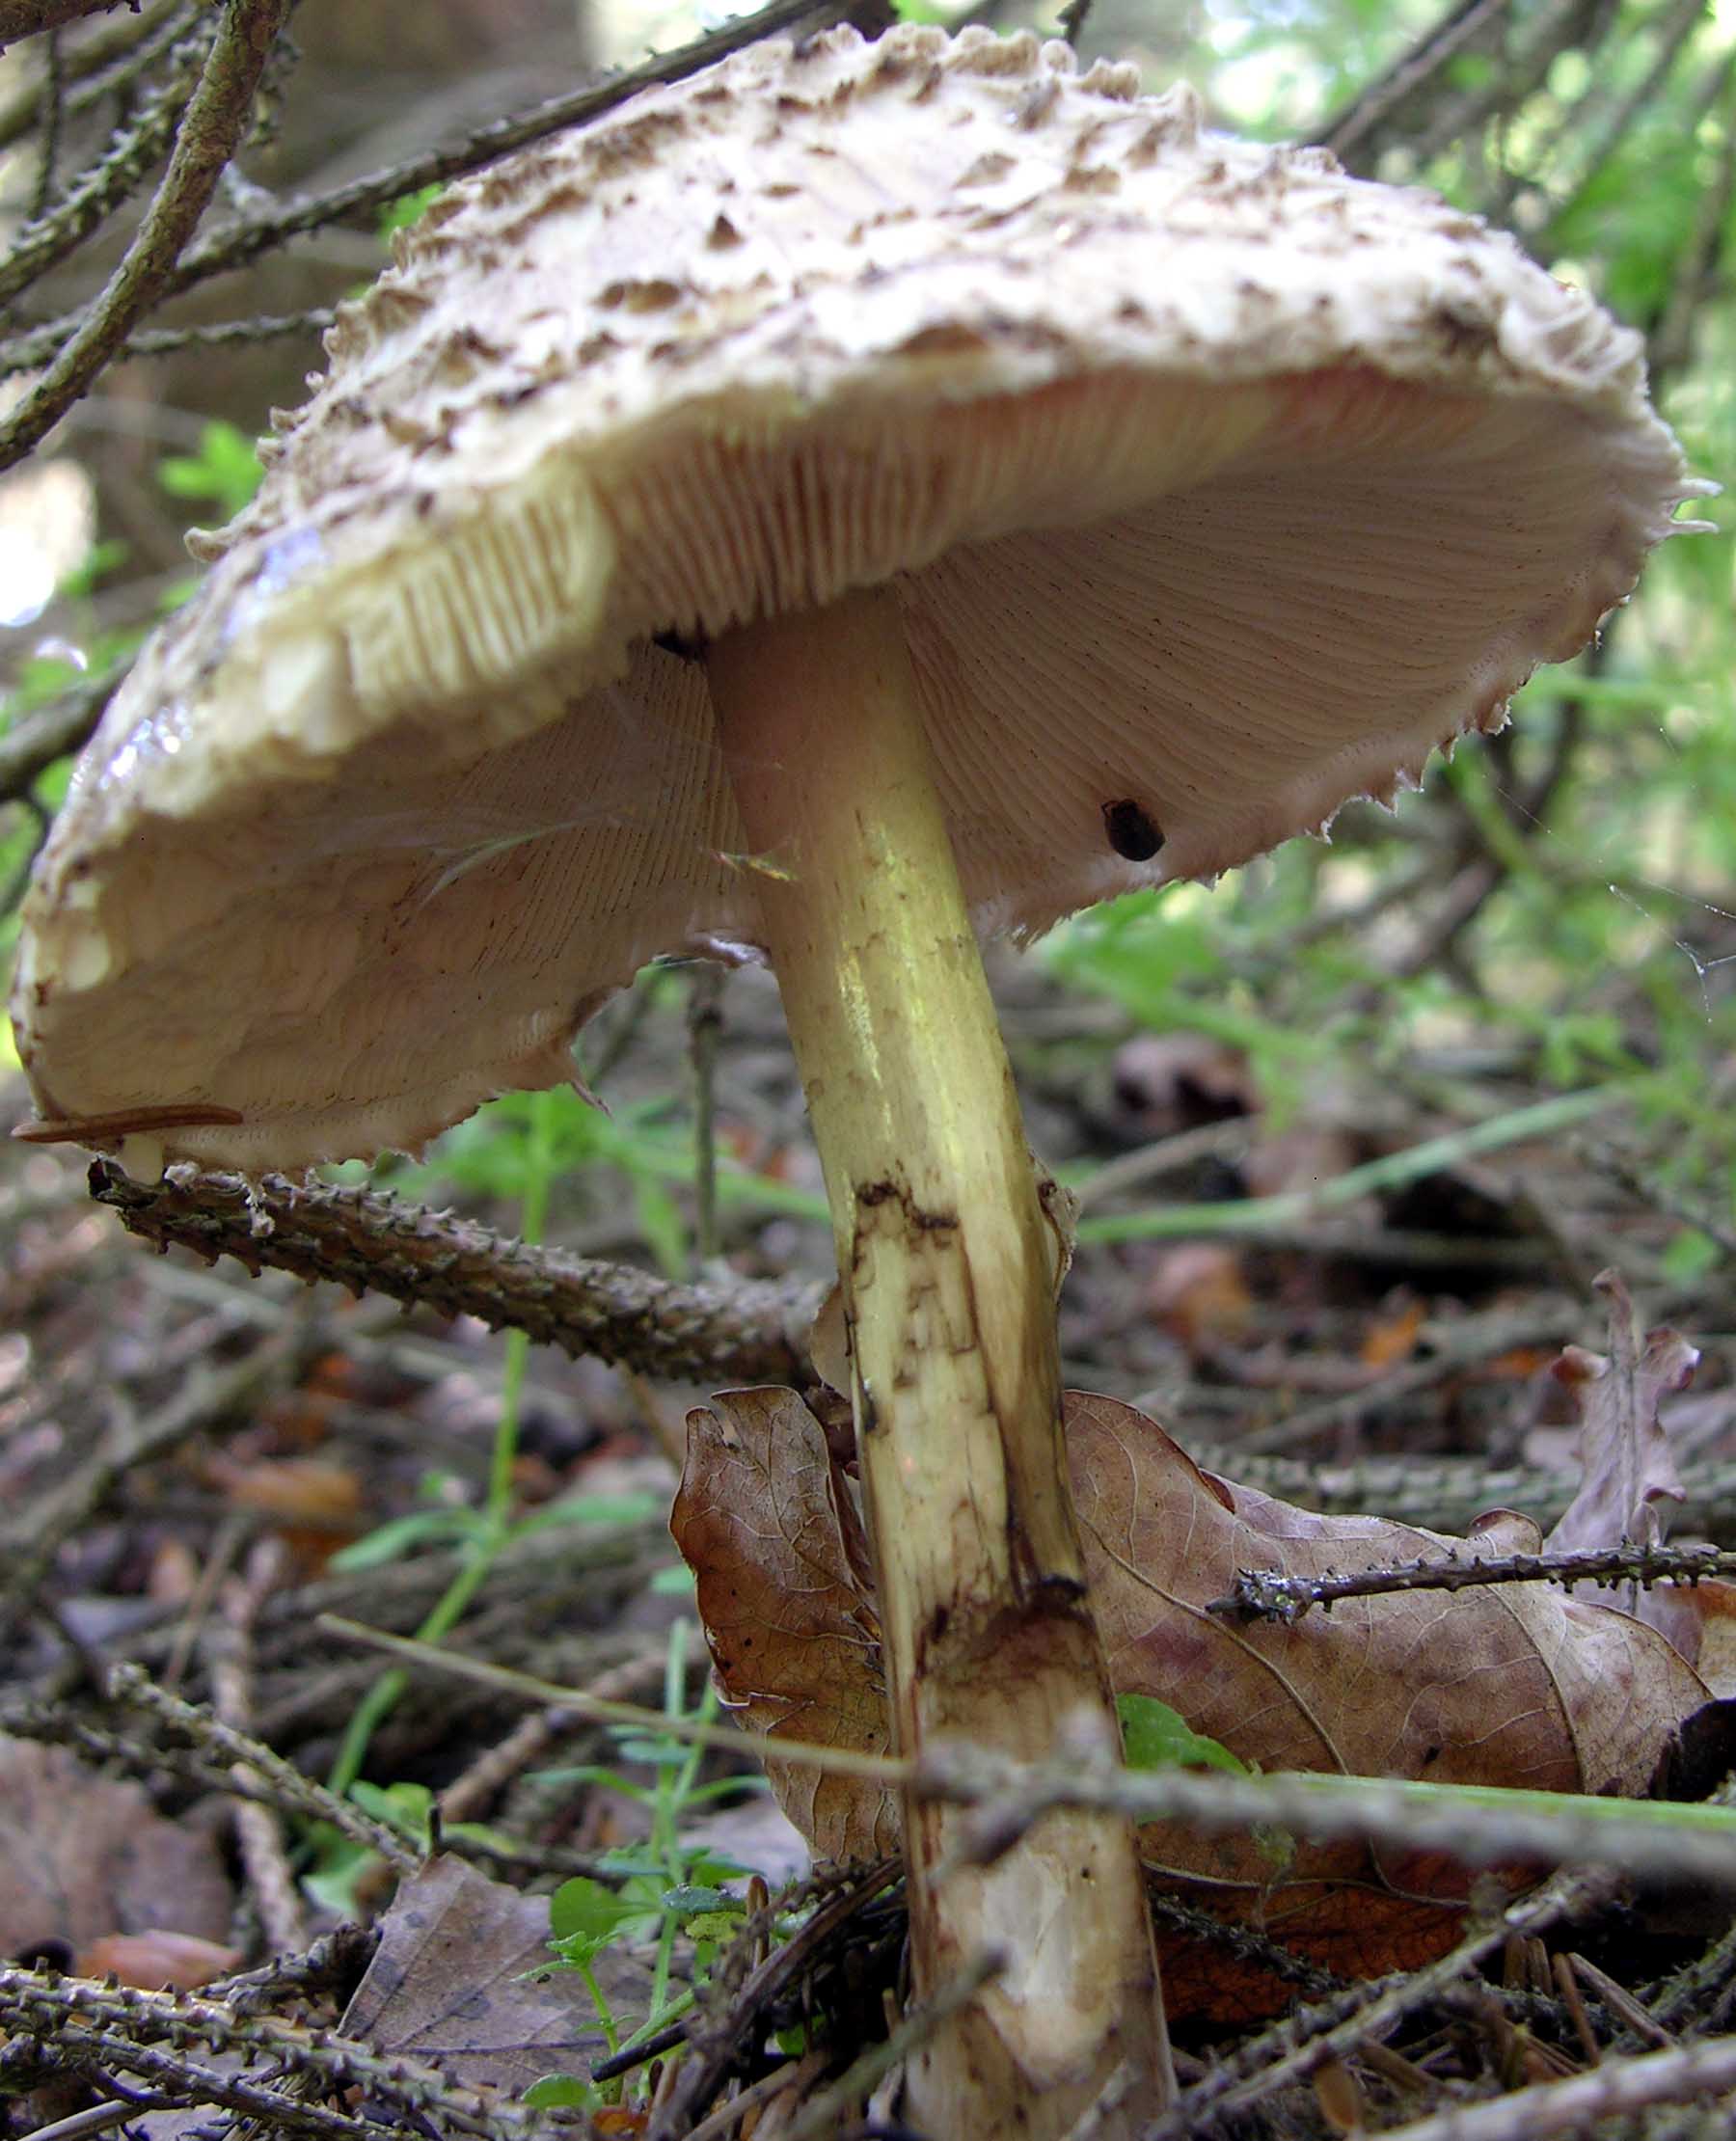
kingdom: Fungi
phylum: Basidiomycota
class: Agaricomycetes
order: Agaricales
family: Agaricaceae
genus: Chlorophyllum
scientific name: Chlorophyllum olivieri
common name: almindelig rabarberhat
